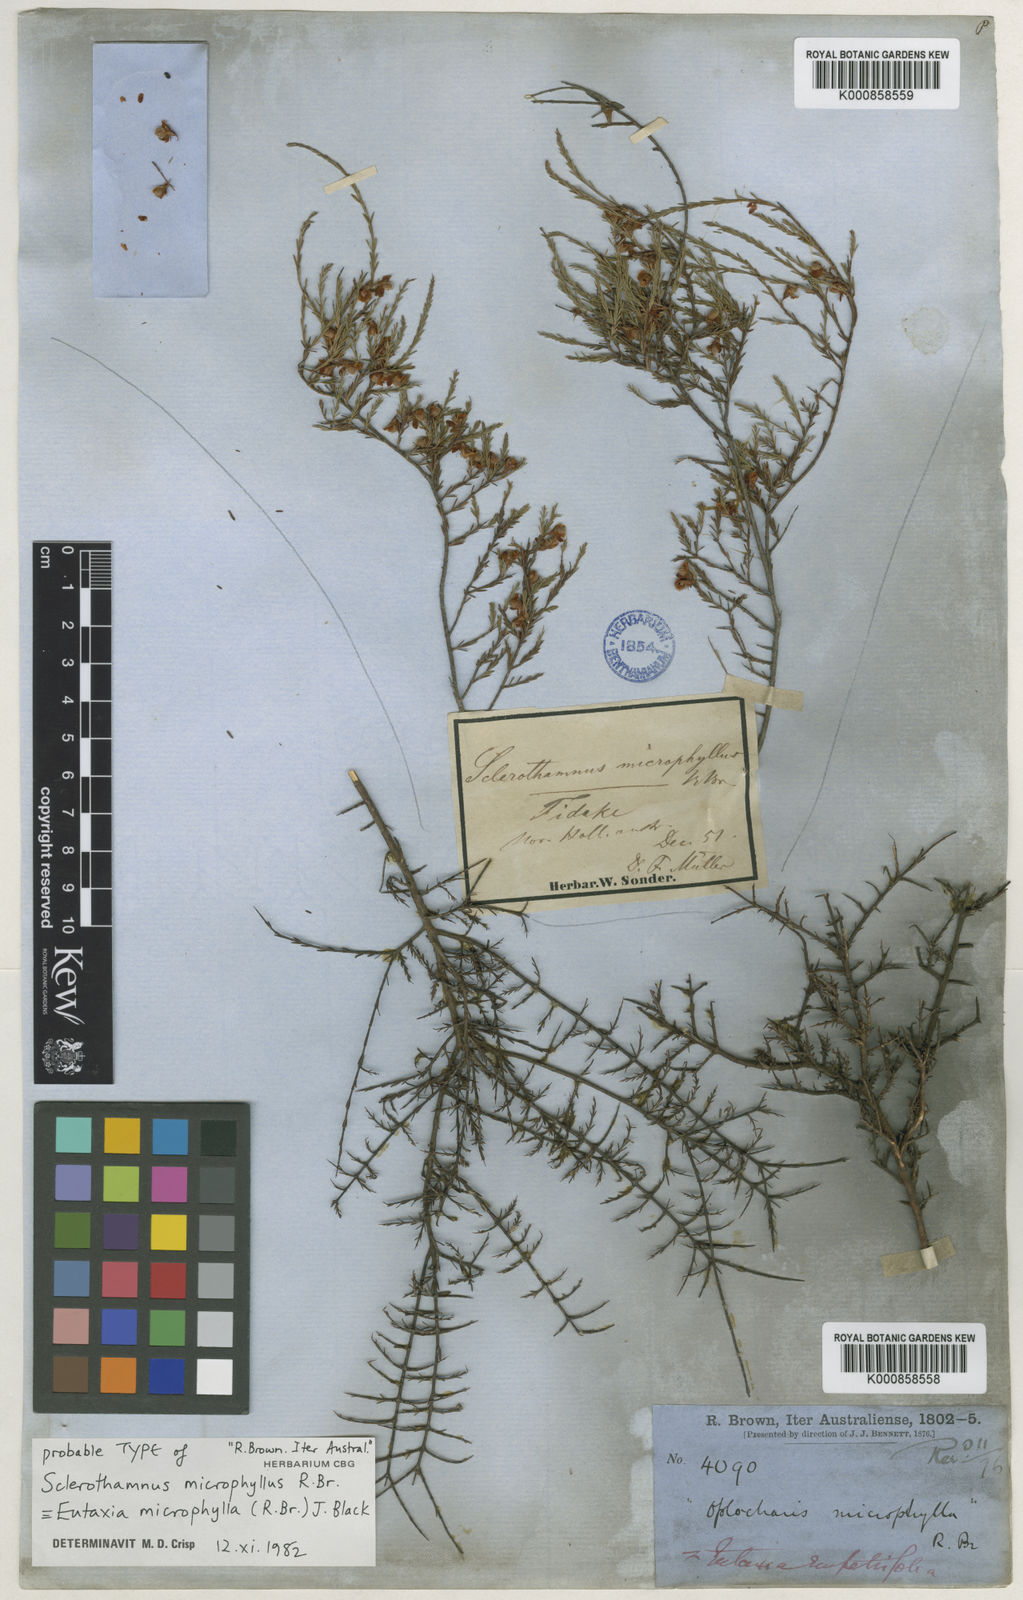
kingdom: Plantae
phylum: Tracheophyta
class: Magnoliopsida
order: Fabales
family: Fabaceae
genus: Eutaxia
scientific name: Eutaxia
